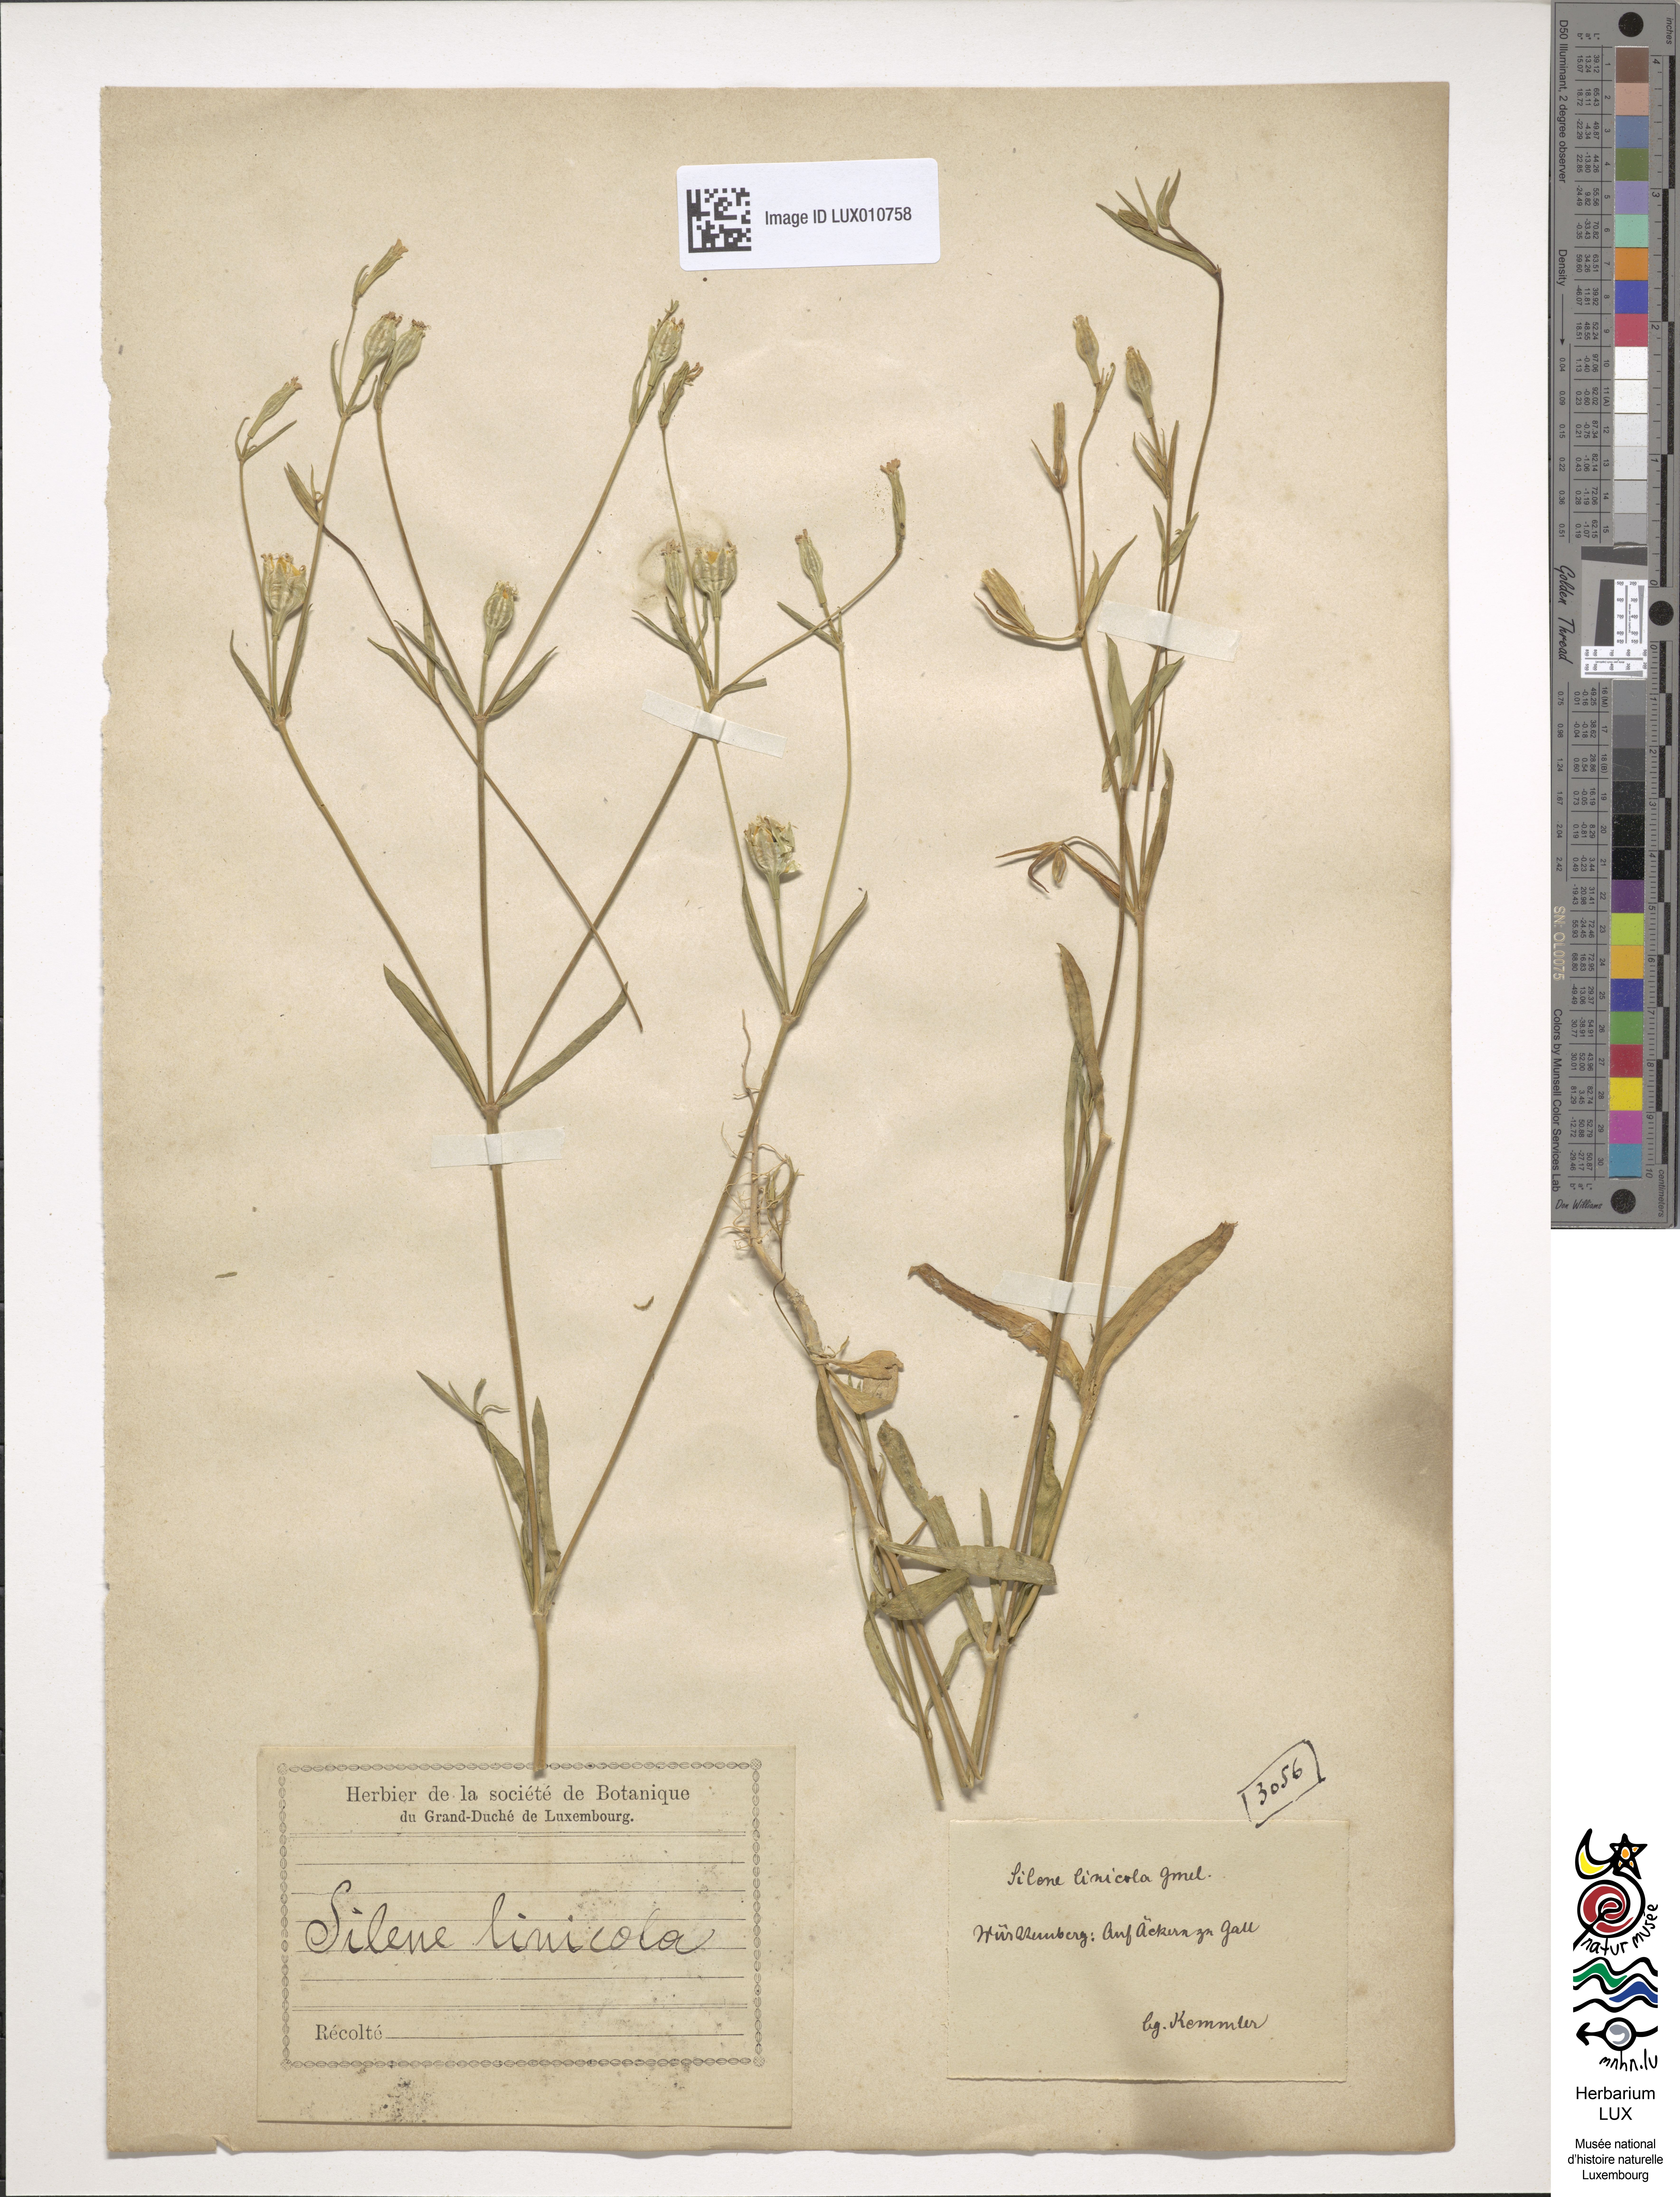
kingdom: Plantae
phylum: Tracheophyta
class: Magnoliopsida
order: Caryophyllales
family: Caryophyllaceae
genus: Silene
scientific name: Silene linicola
